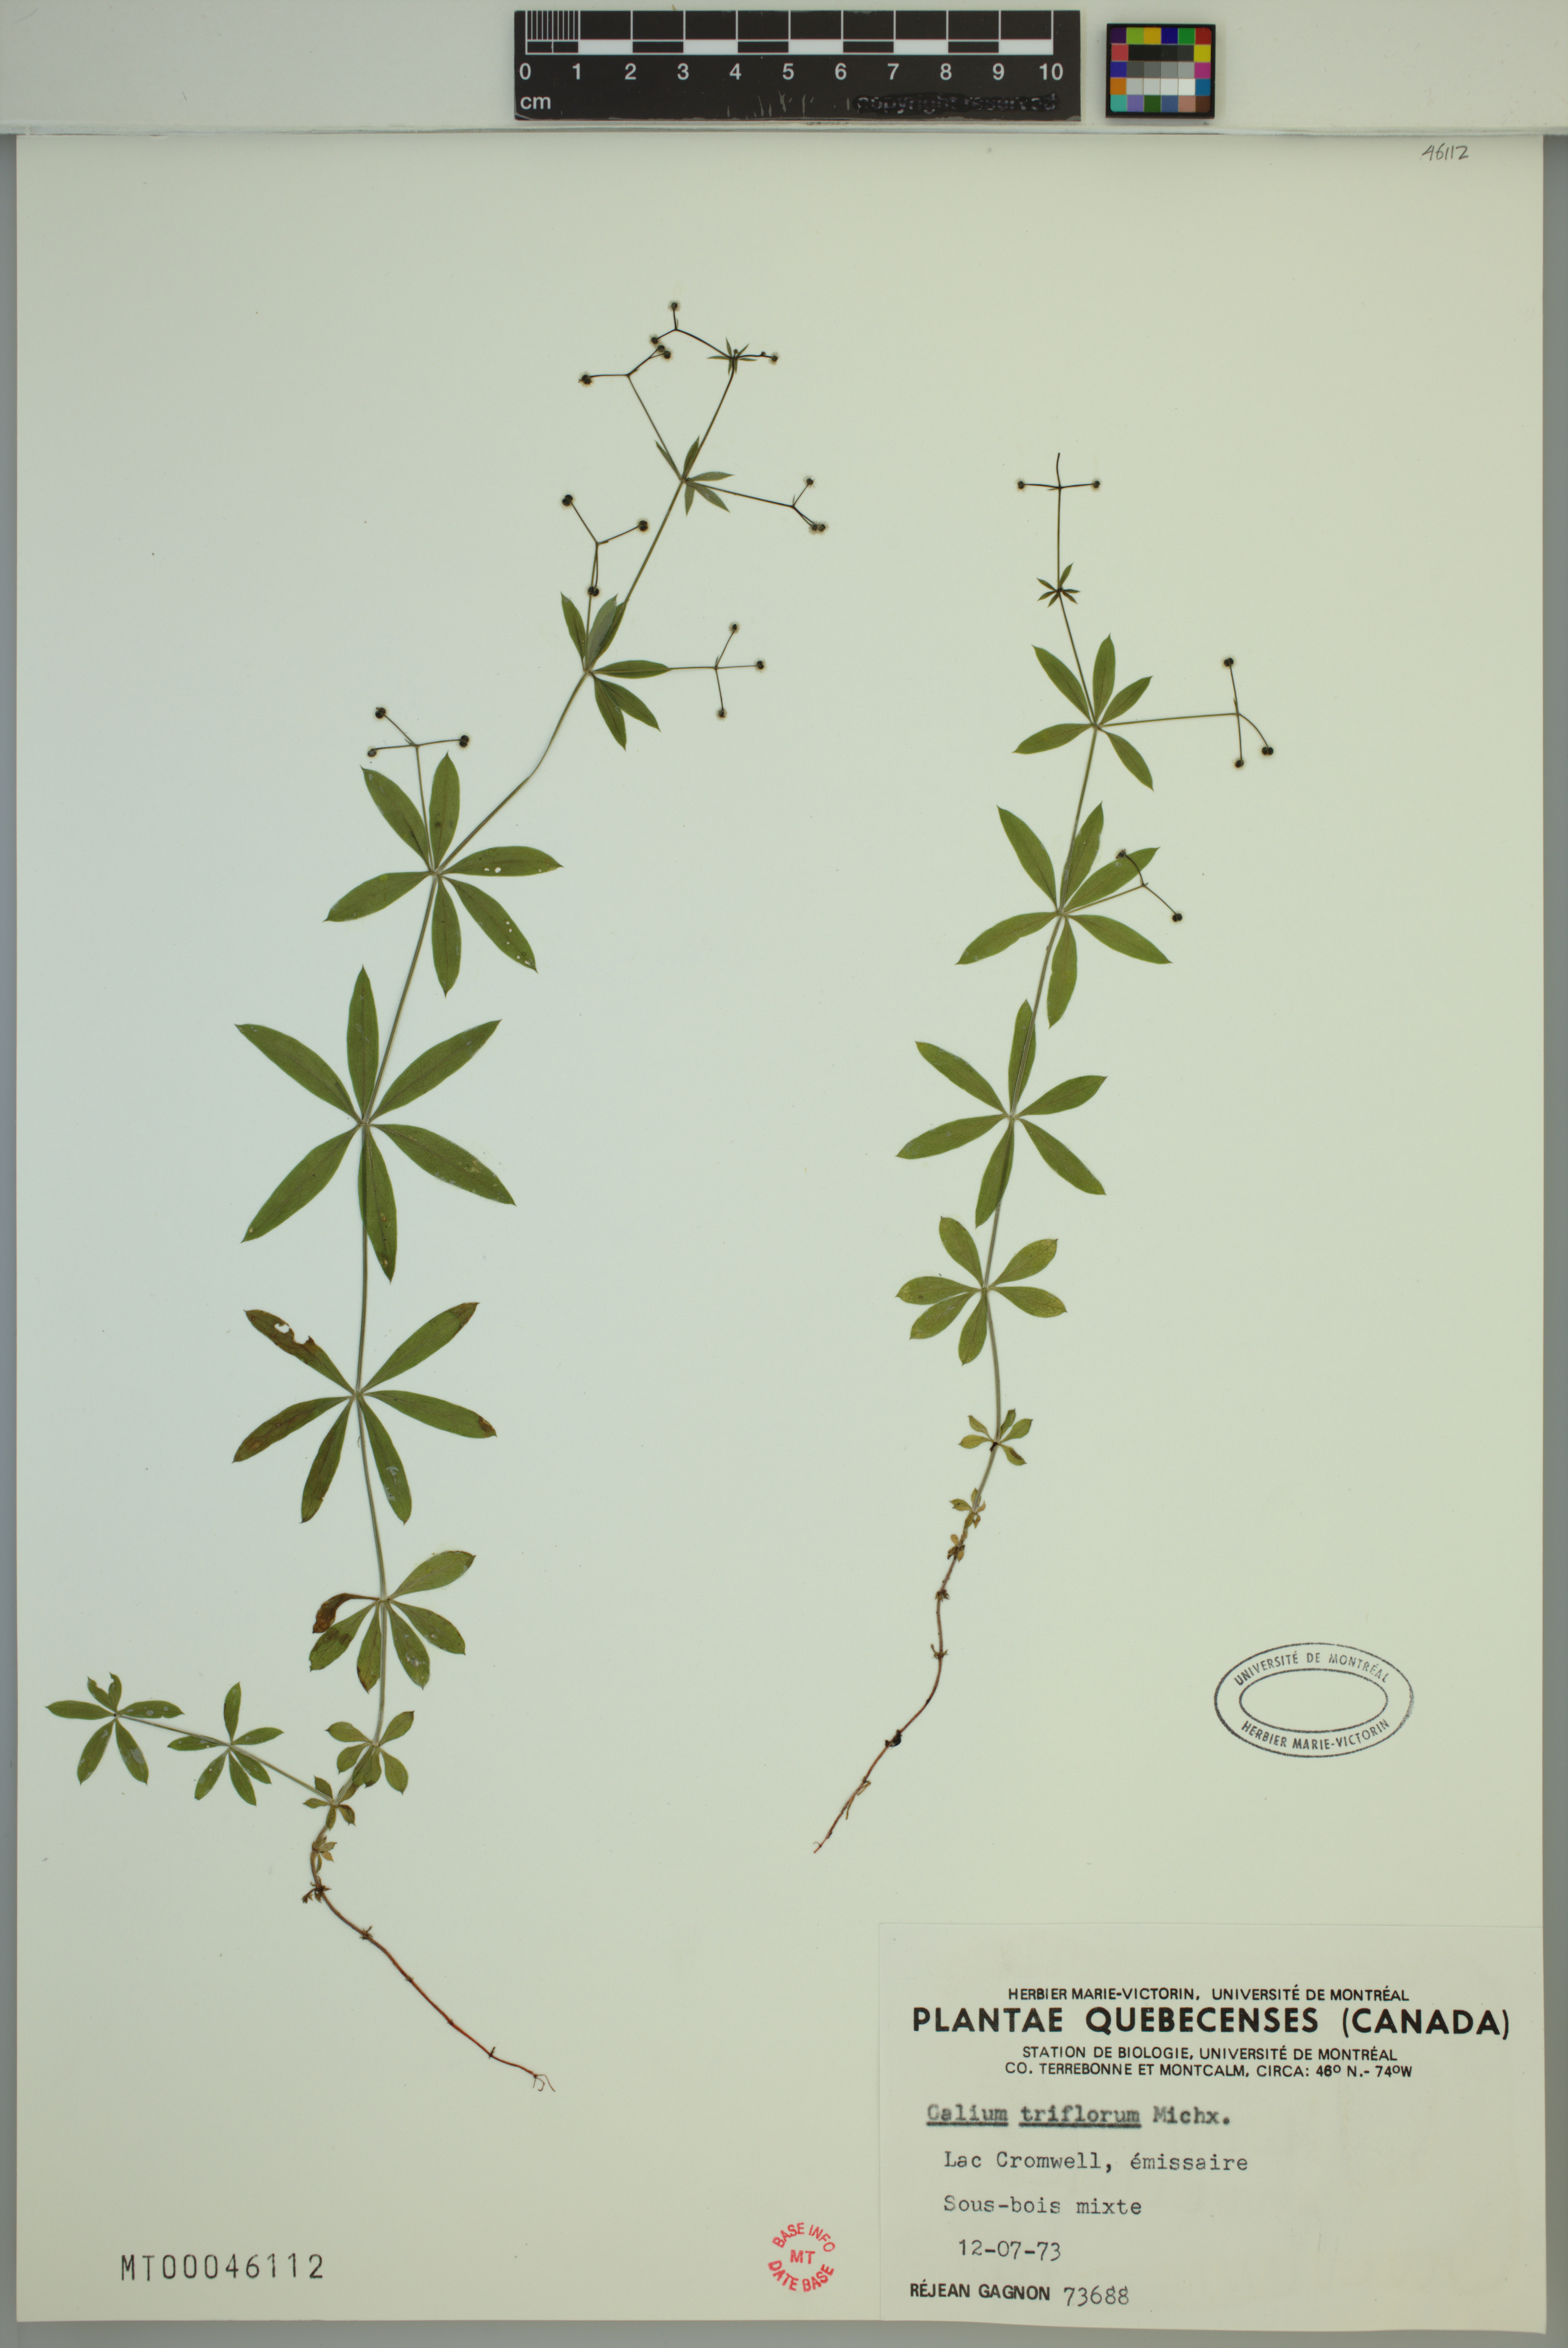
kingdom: Plantae
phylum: Tracheophyta
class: Magnoliopsida
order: Gentianales
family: Rubiaceae
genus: Galium
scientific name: Galium triflorum
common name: Fragrant bedstraw
